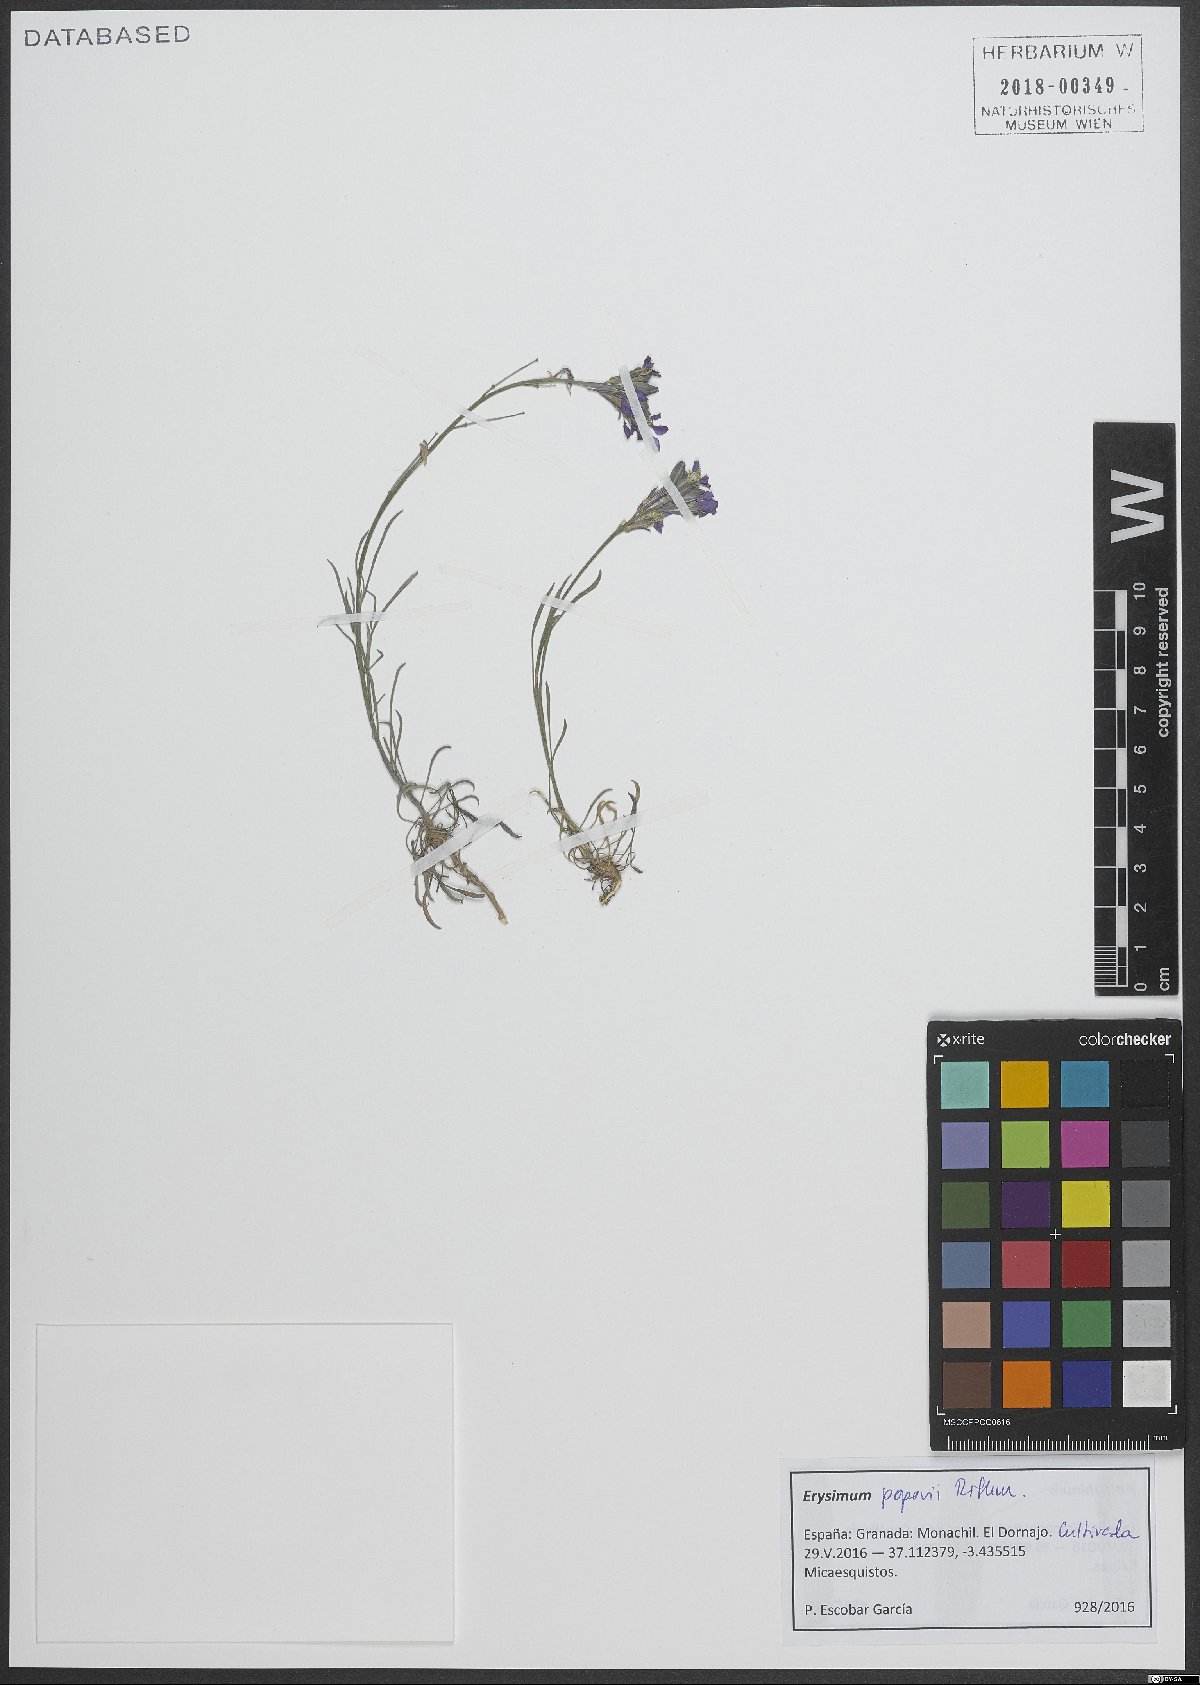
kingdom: Plantae
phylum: Tracheophyta
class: Magnoliopsida
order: Brassicales
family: Brassicaceae
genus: Erysimum
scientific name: Erysimum popovii
